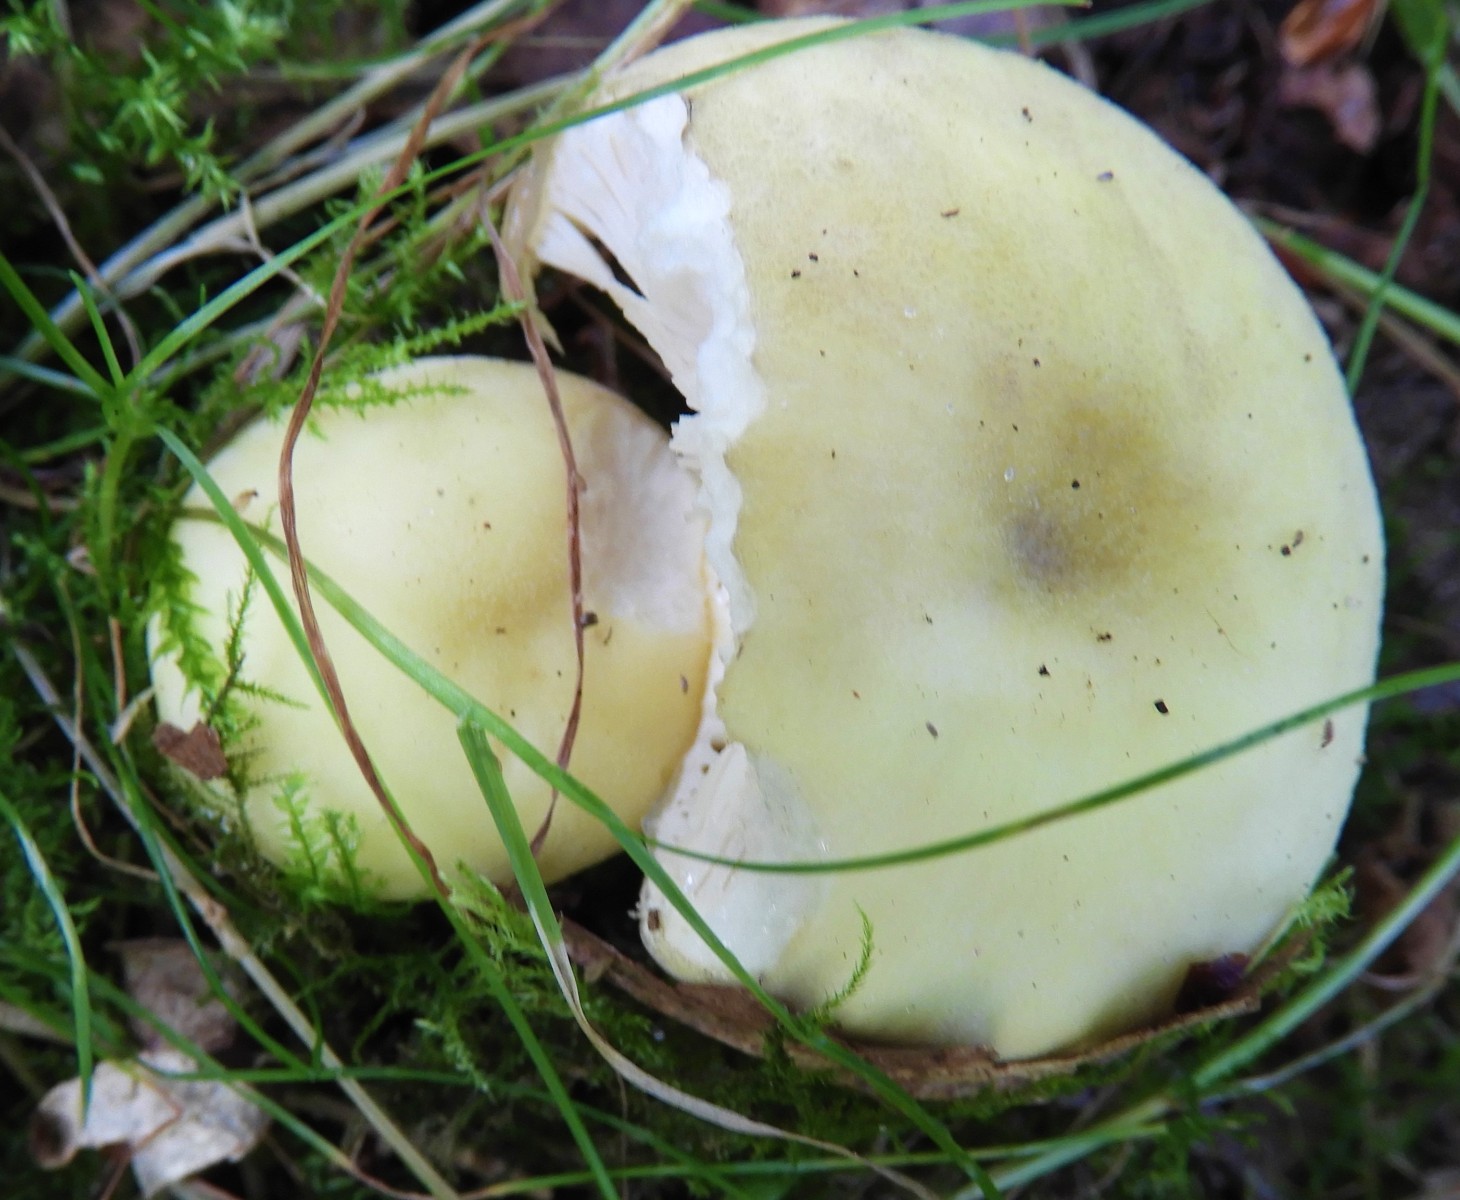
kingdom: Fungi
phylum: Basidiomycota
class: Agaricomycetes
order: Russulales
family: Russulaceae
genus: Russula
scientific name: Russula violeipes
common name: ferskengul skørhat
